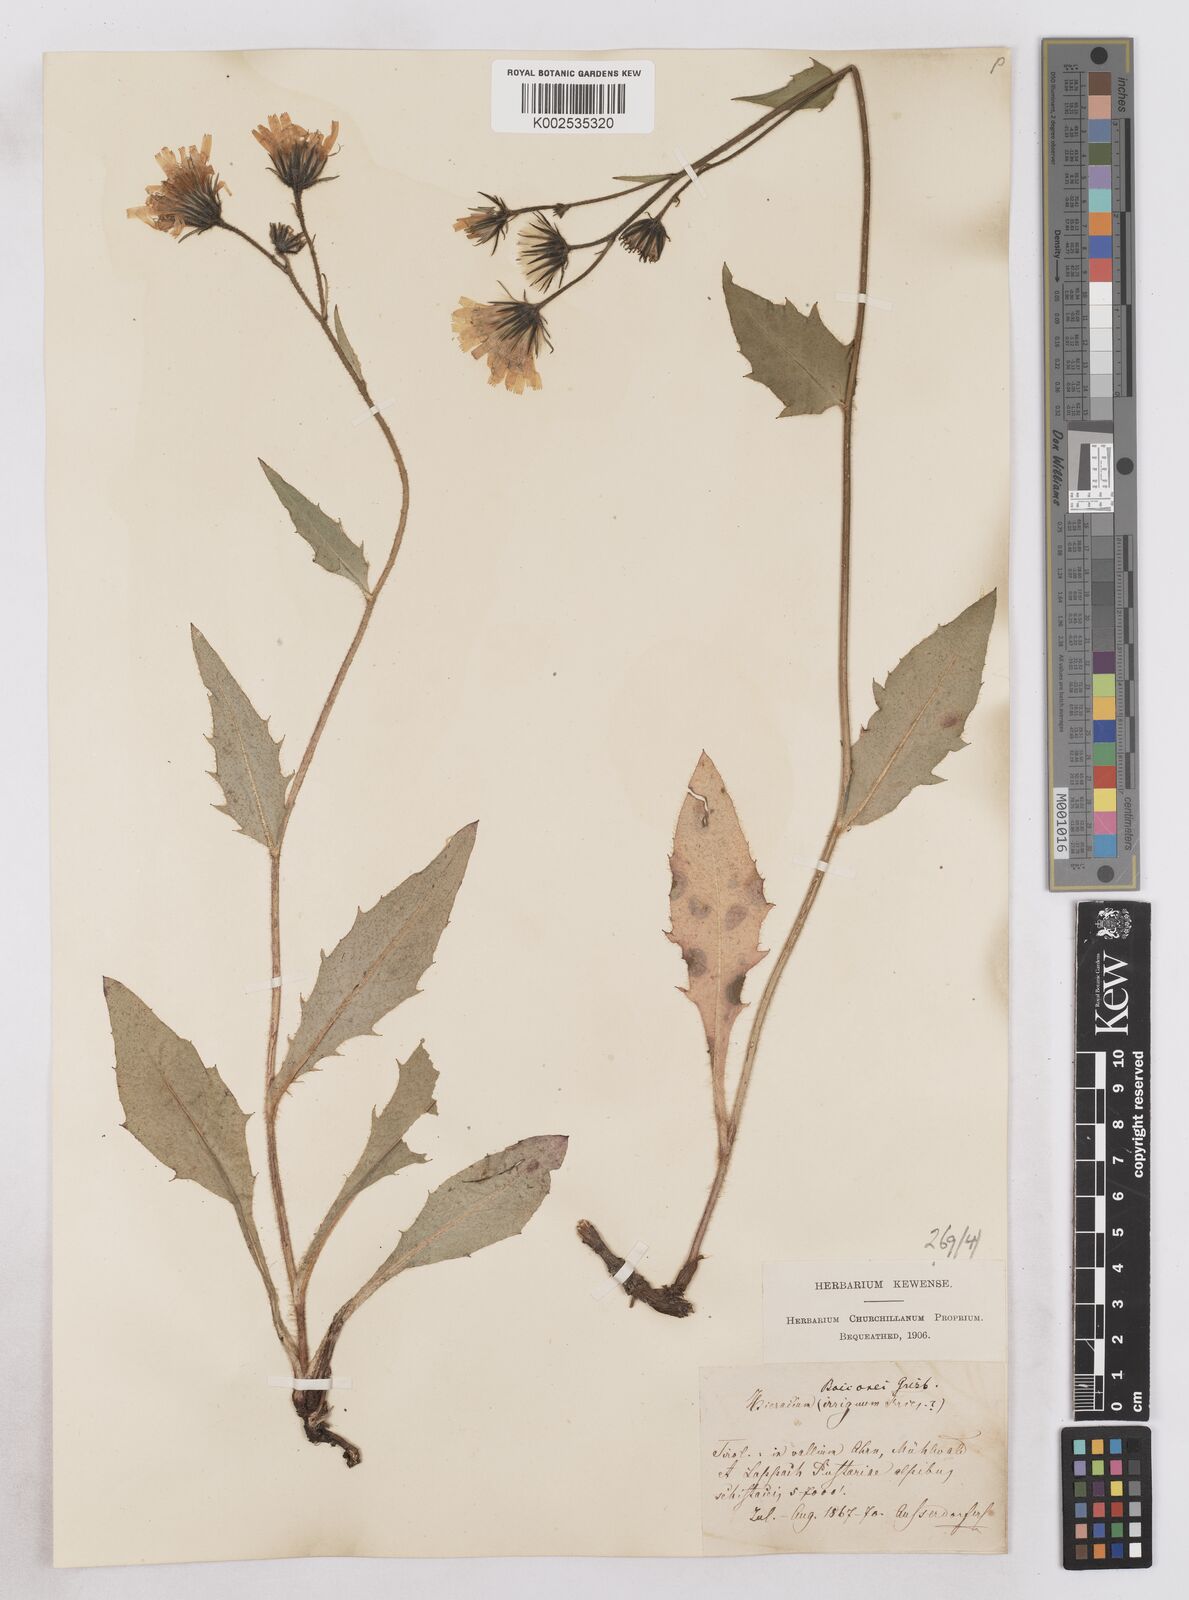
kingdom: Plantae
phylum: Tracheophyta
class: Magnoliopsida
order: Asterales
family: Asteraceae
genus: Hieracium
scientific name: Hieracium simia
